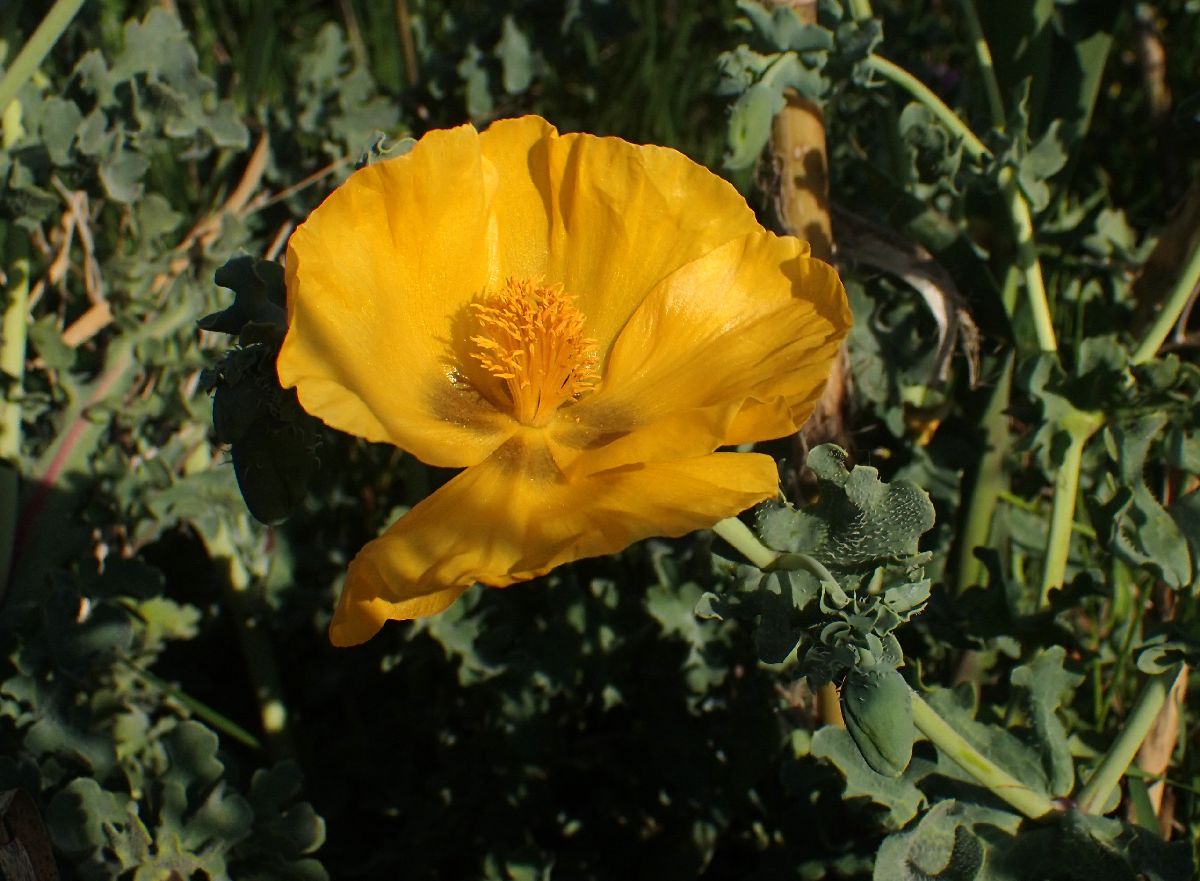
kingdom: Plantae
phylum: Tracheophyta
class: Magnoliopsida
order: Ranunculales
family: Papaveraceae
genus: Glaucium
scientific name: Glaucium flavum
